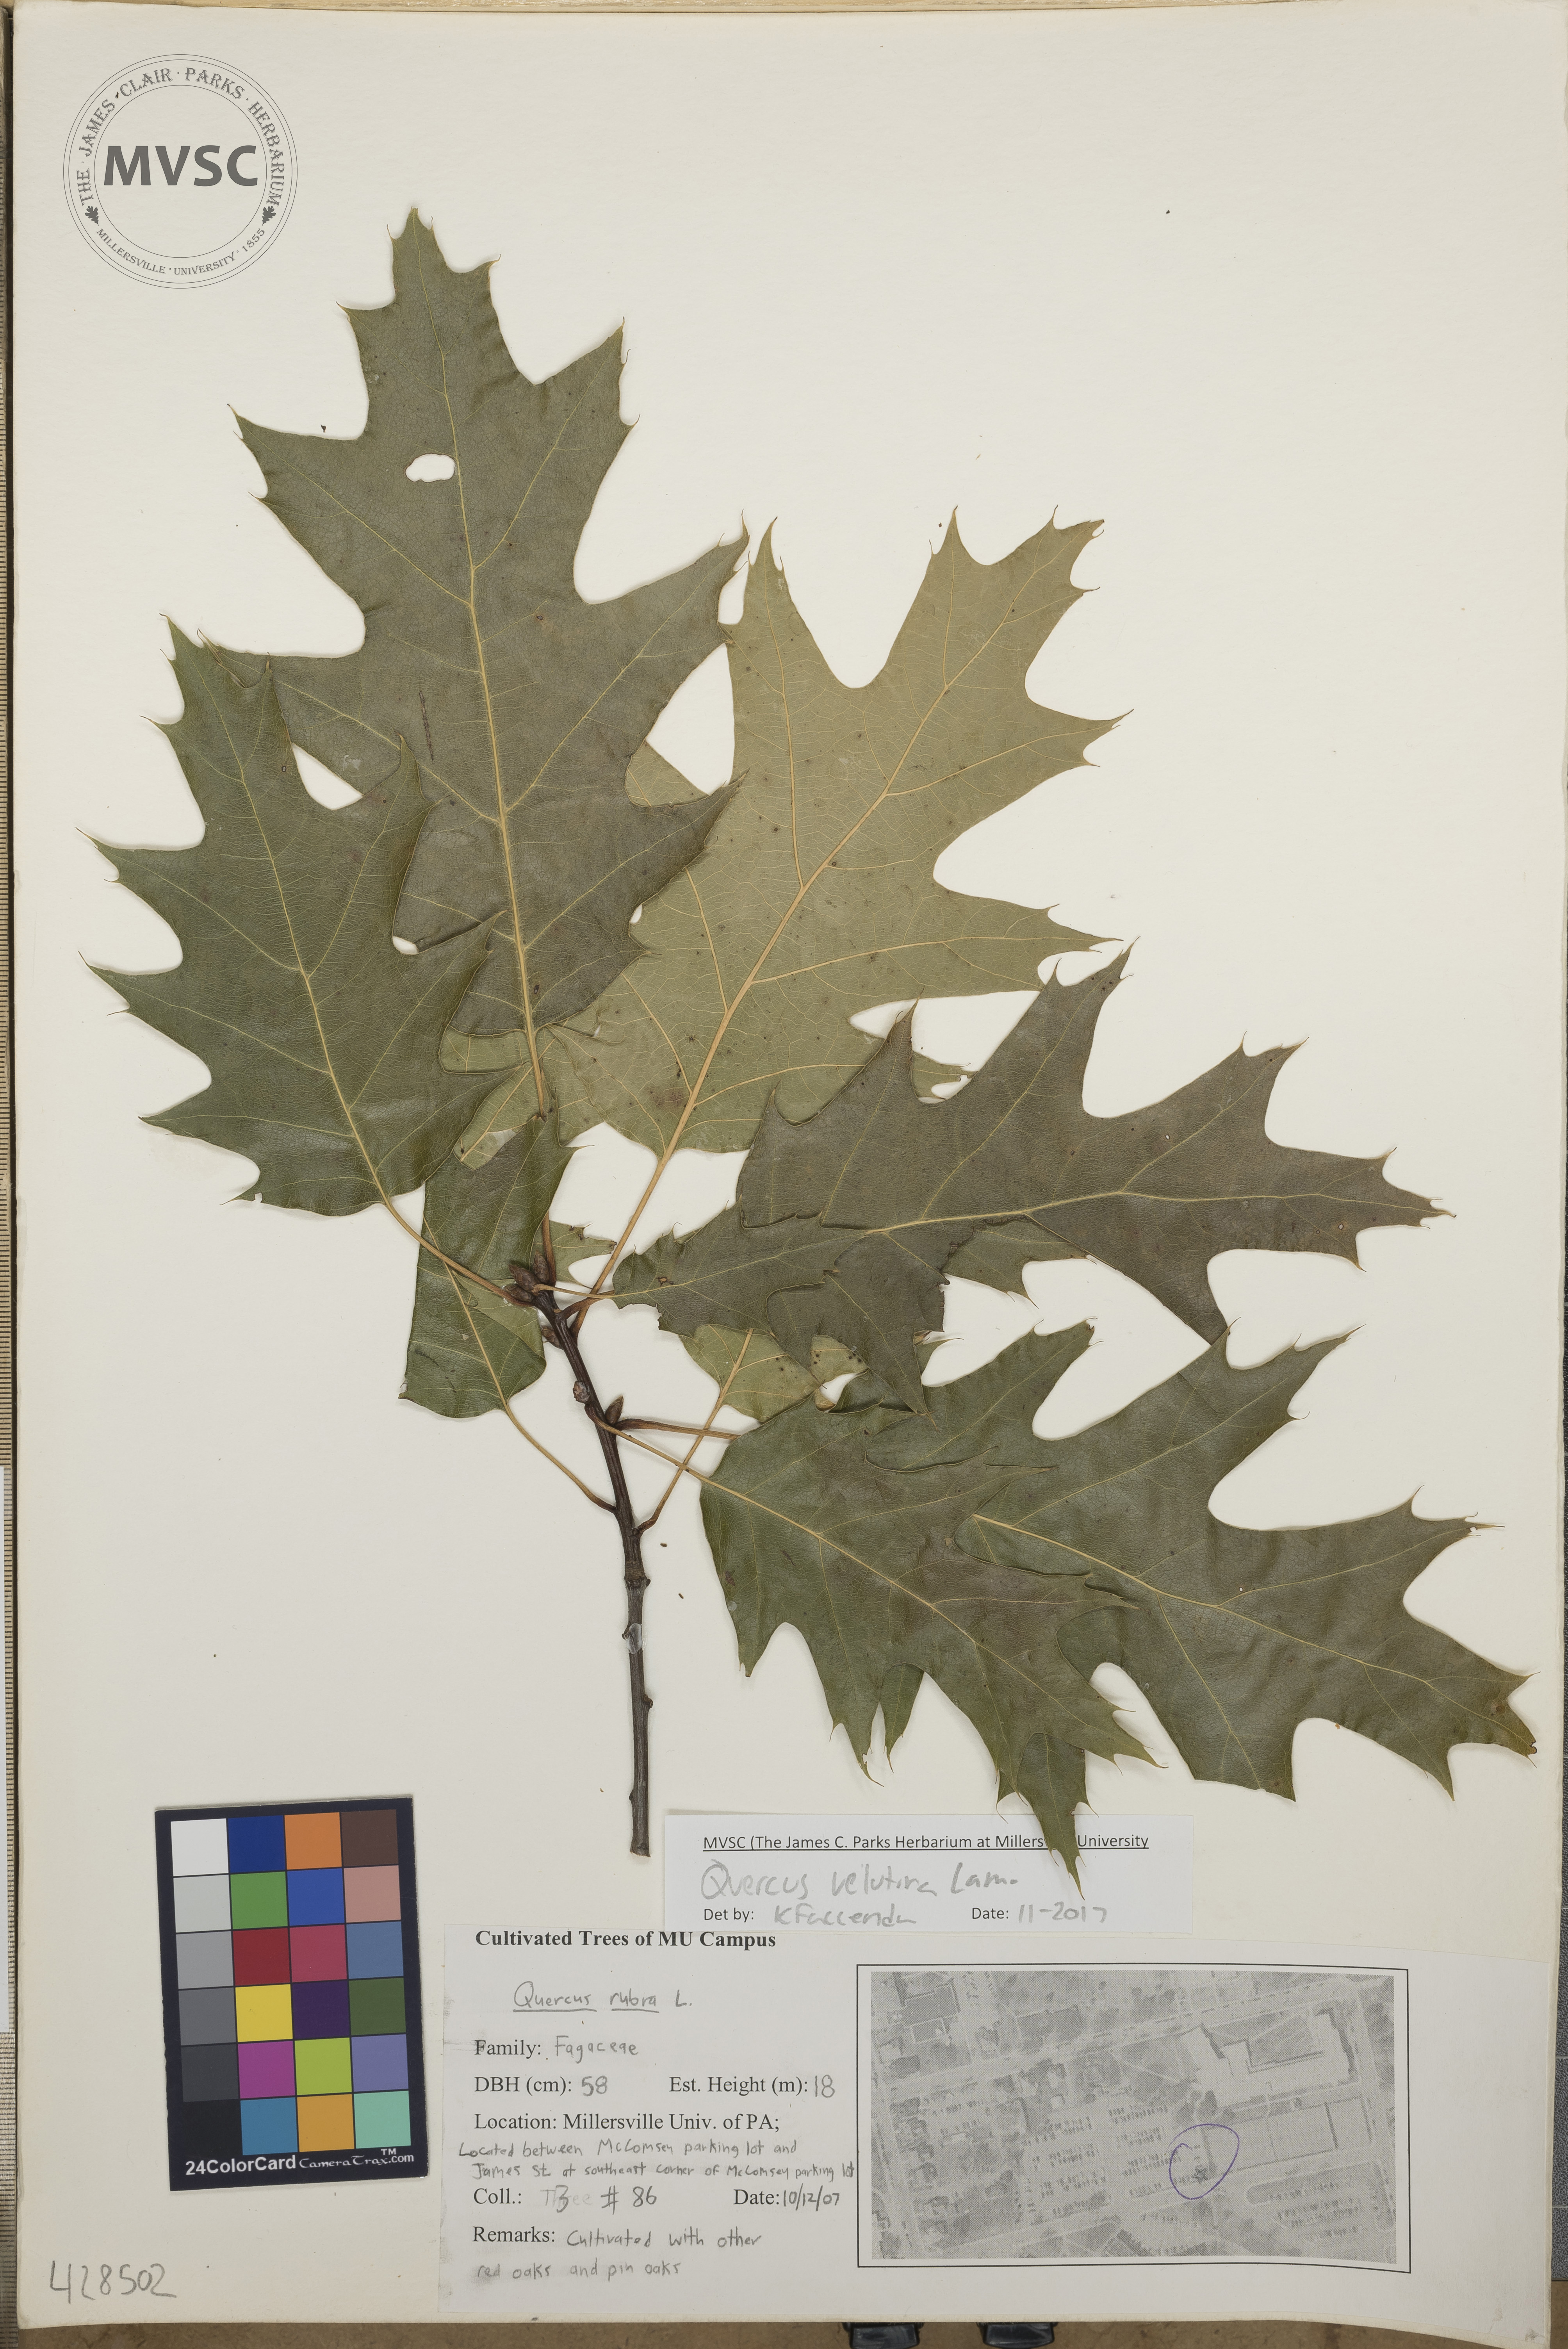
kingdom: Plantae
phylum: Tracheophyta
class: Magnoliopsida
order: Fagales
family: Fagaceae
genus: Quercus
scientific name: Quercus velutina
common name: Black oak
